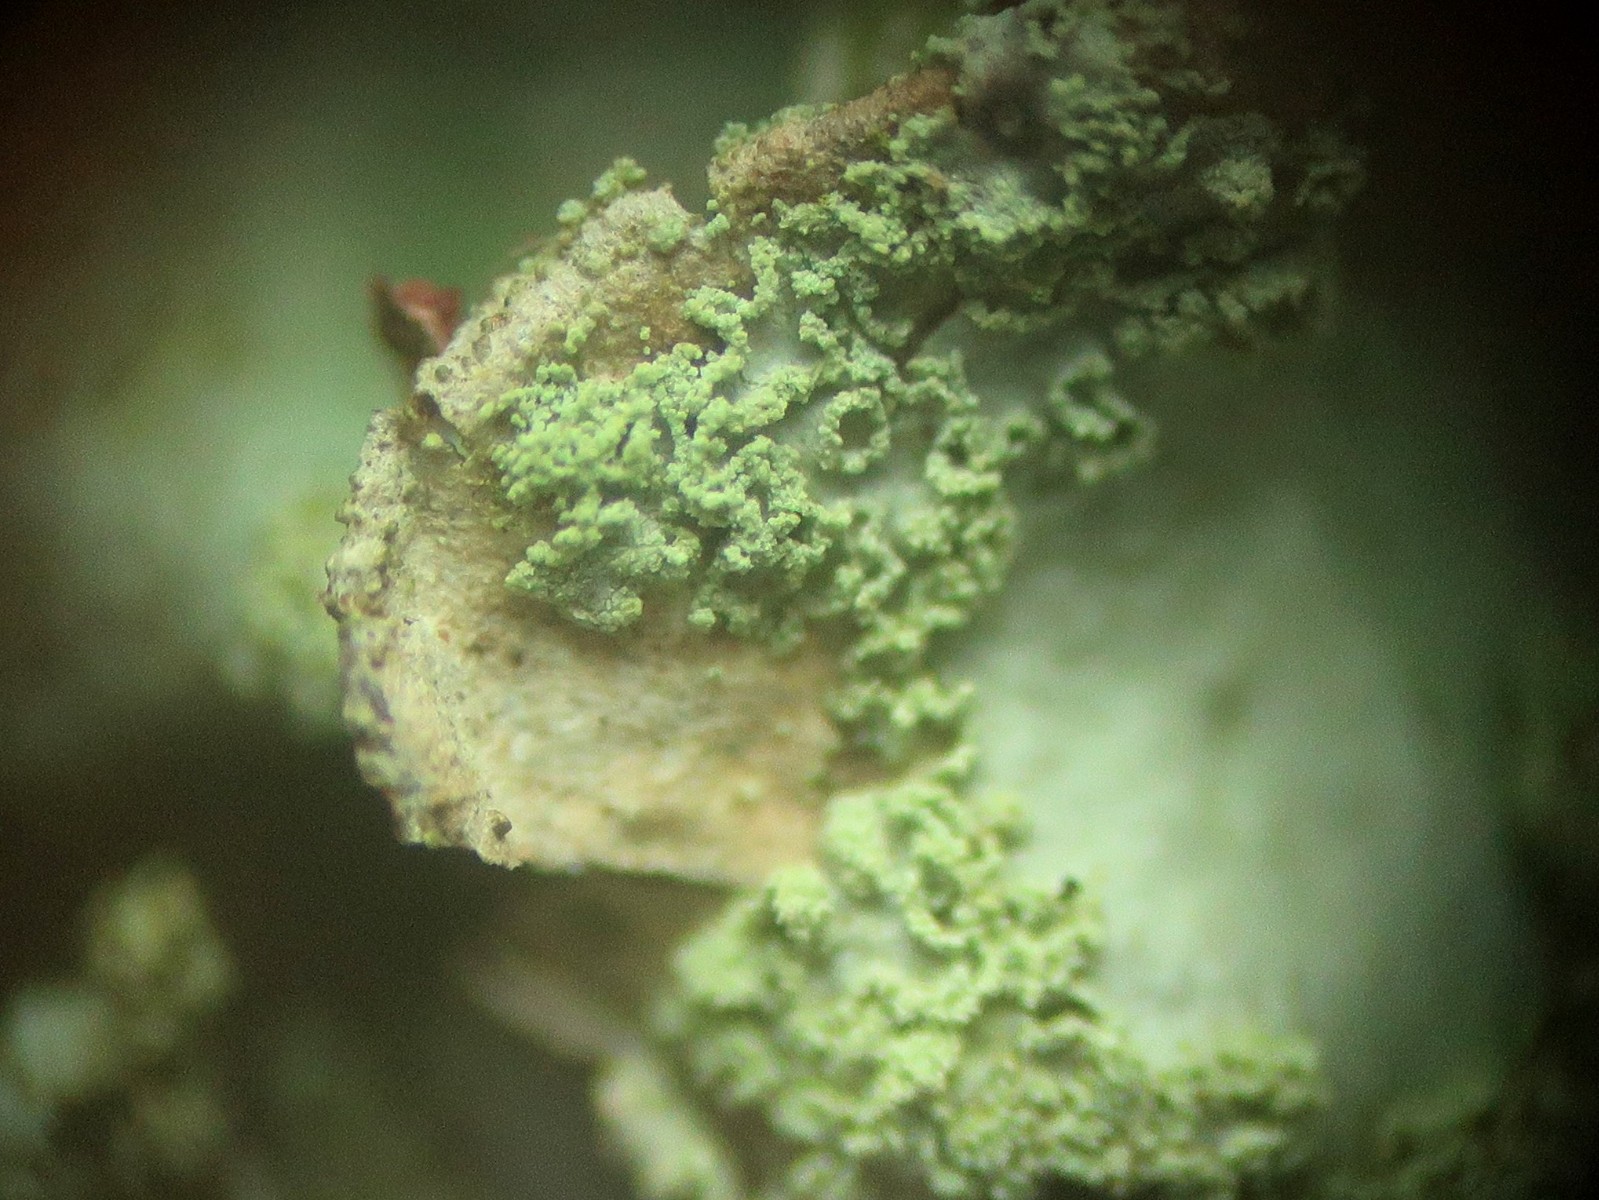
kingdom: Fungi
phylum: Ascomycota
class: Lecanoromycetes
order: Lecanorales
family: Parmeliaceae
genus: Hypotrachyna
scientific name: Hypotrachyna afrorevoluta
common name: kyst-skållav
